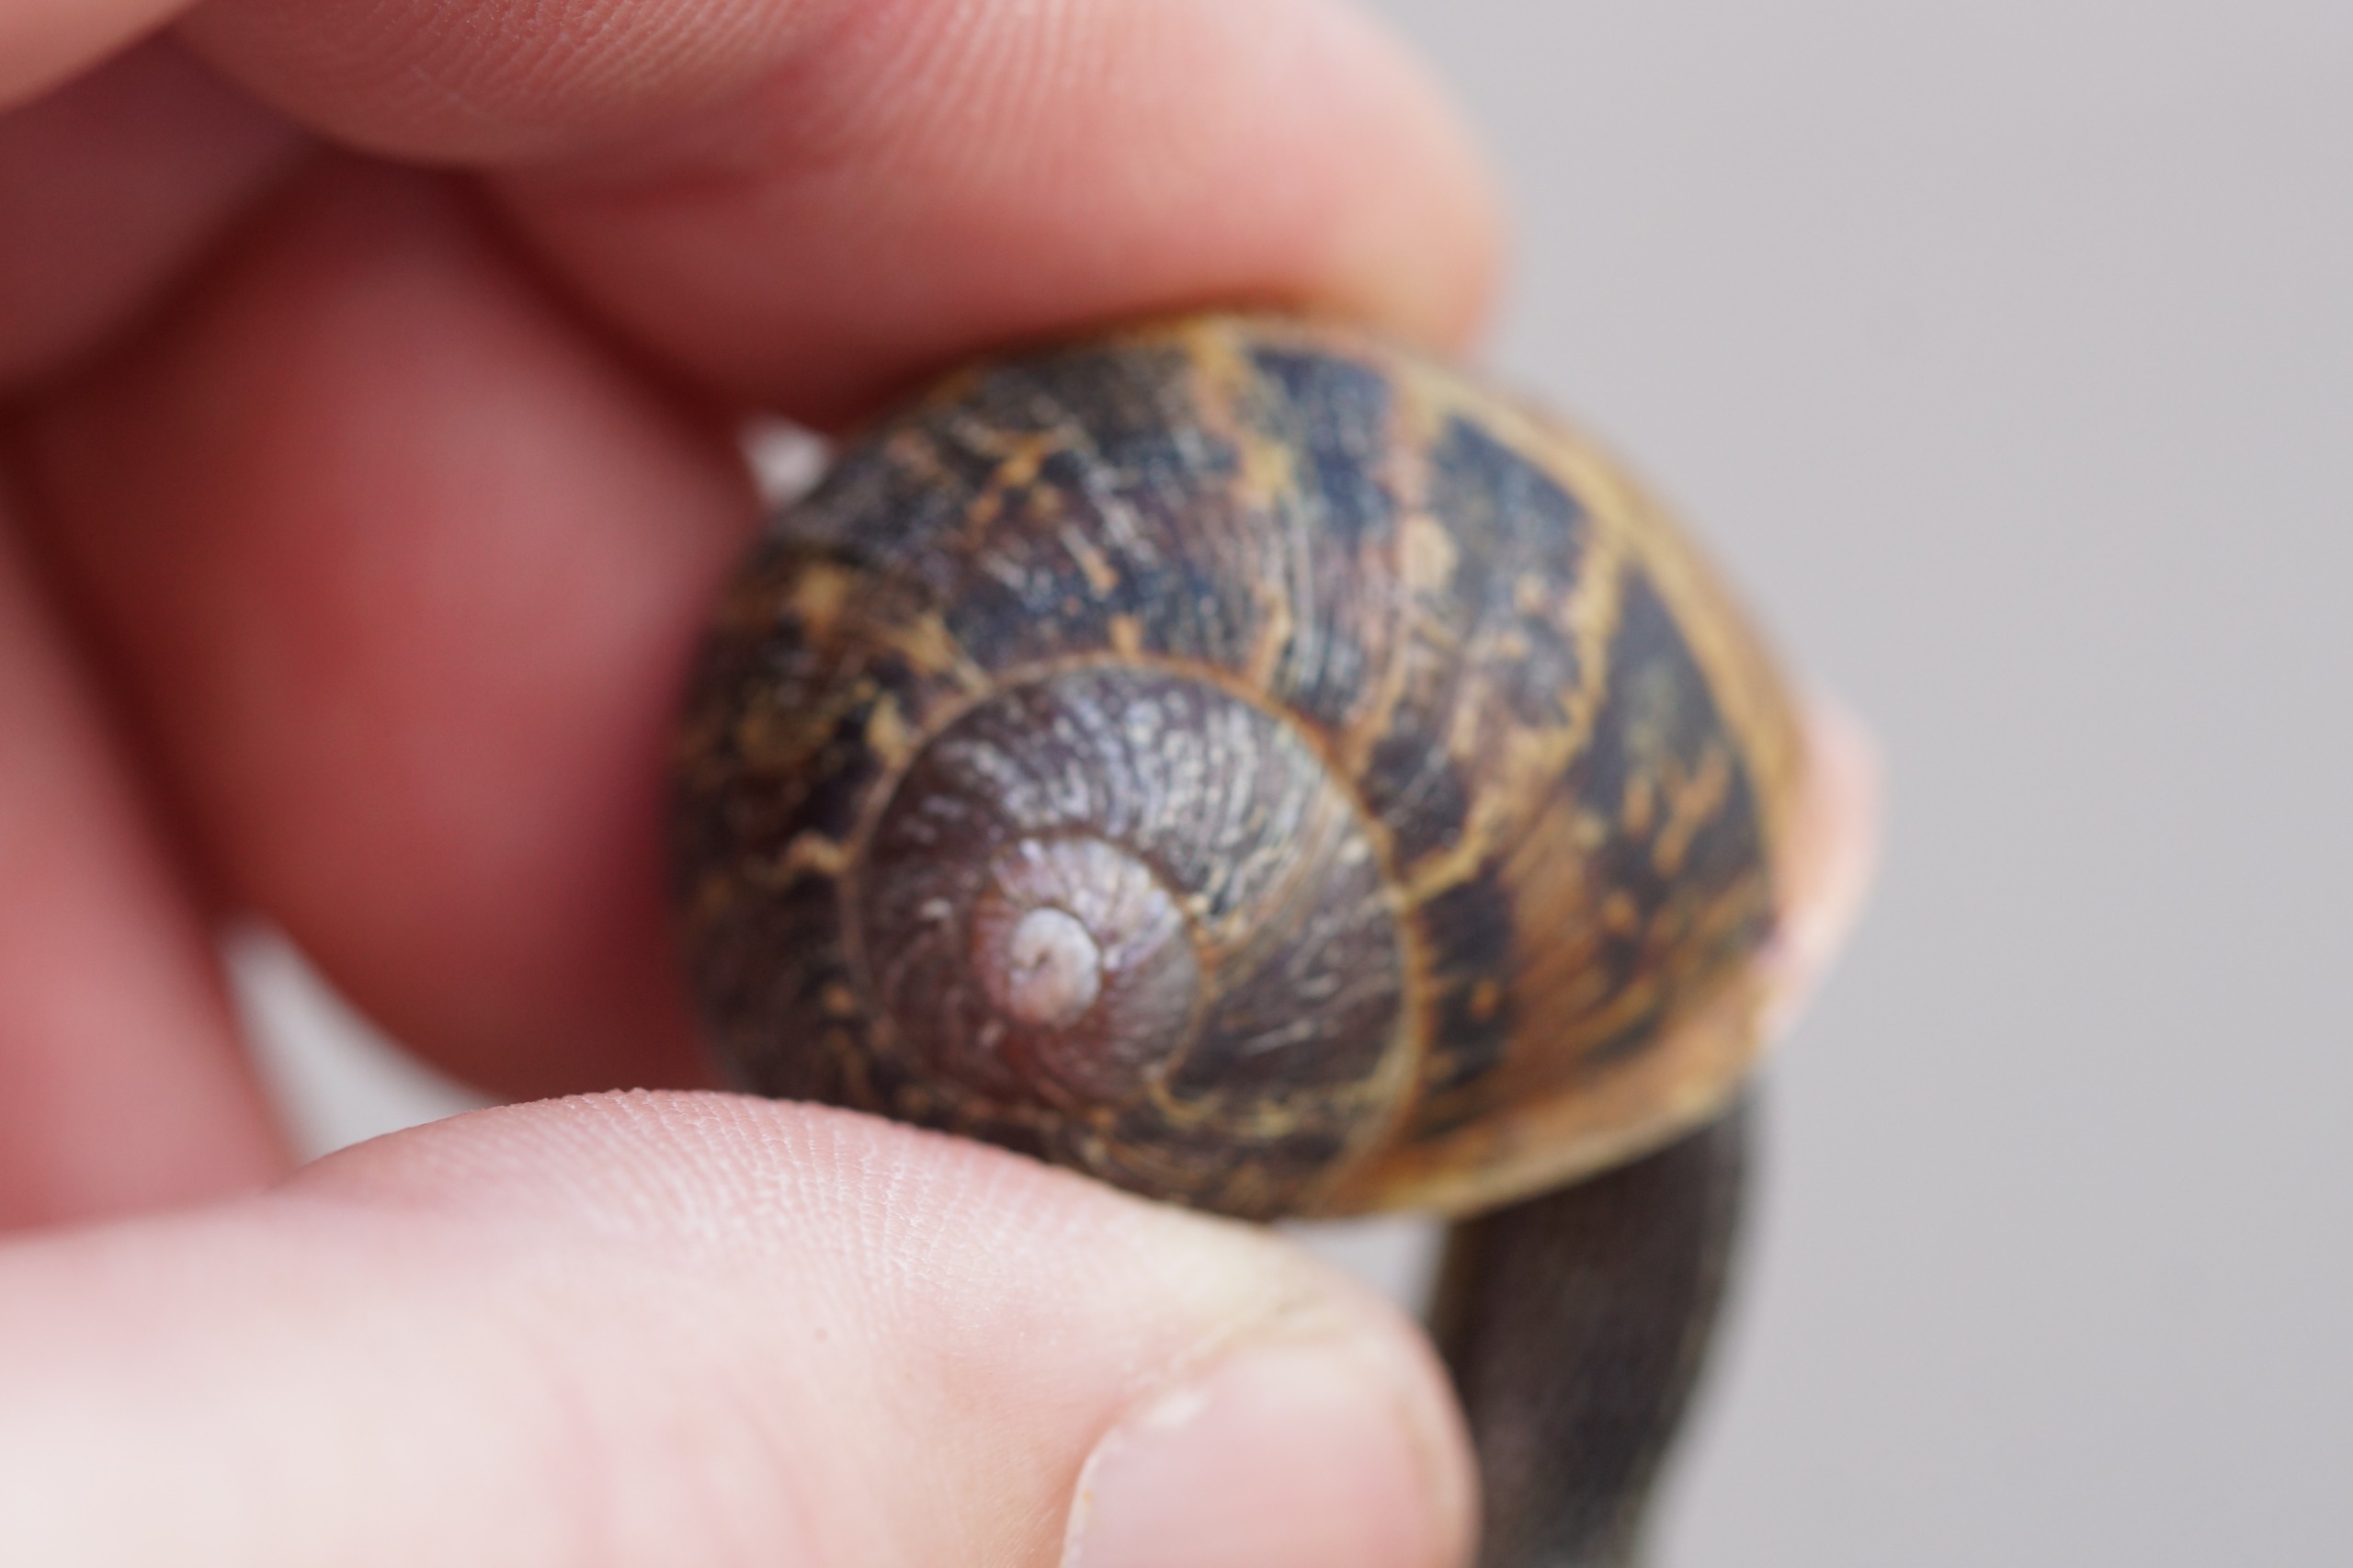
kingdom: Animalia
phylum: Mollusca
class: Gastropoda
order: Stylommatophora
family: Helicidae
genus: Cornu
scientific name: Cornu aspersum
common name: Plettet voldsnegl
